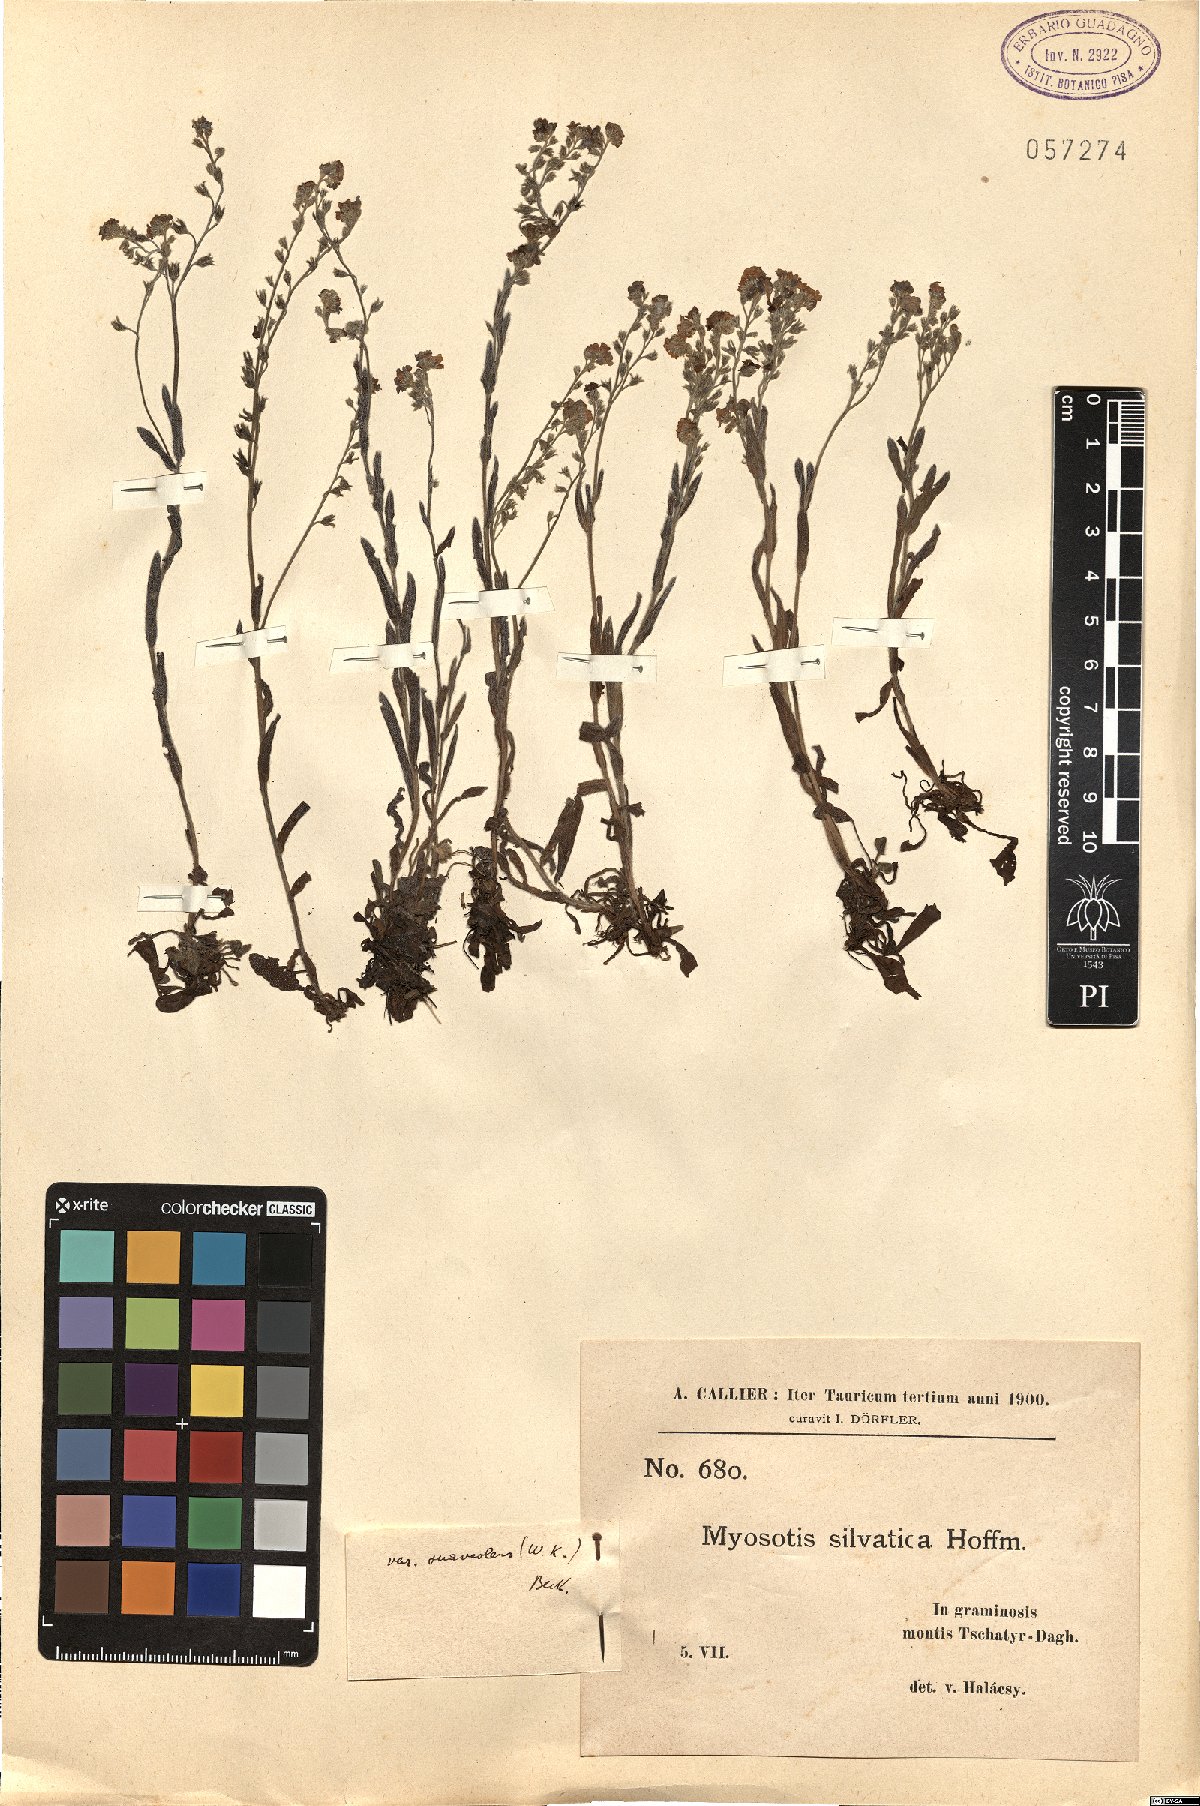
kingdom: Plantae
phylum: Tracheophyta
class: Magnoliopsida
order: Boraginales
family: Boraginaceae
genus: Myosotis
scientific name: Myosotis sylvatica
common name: Wood forget-me-not
